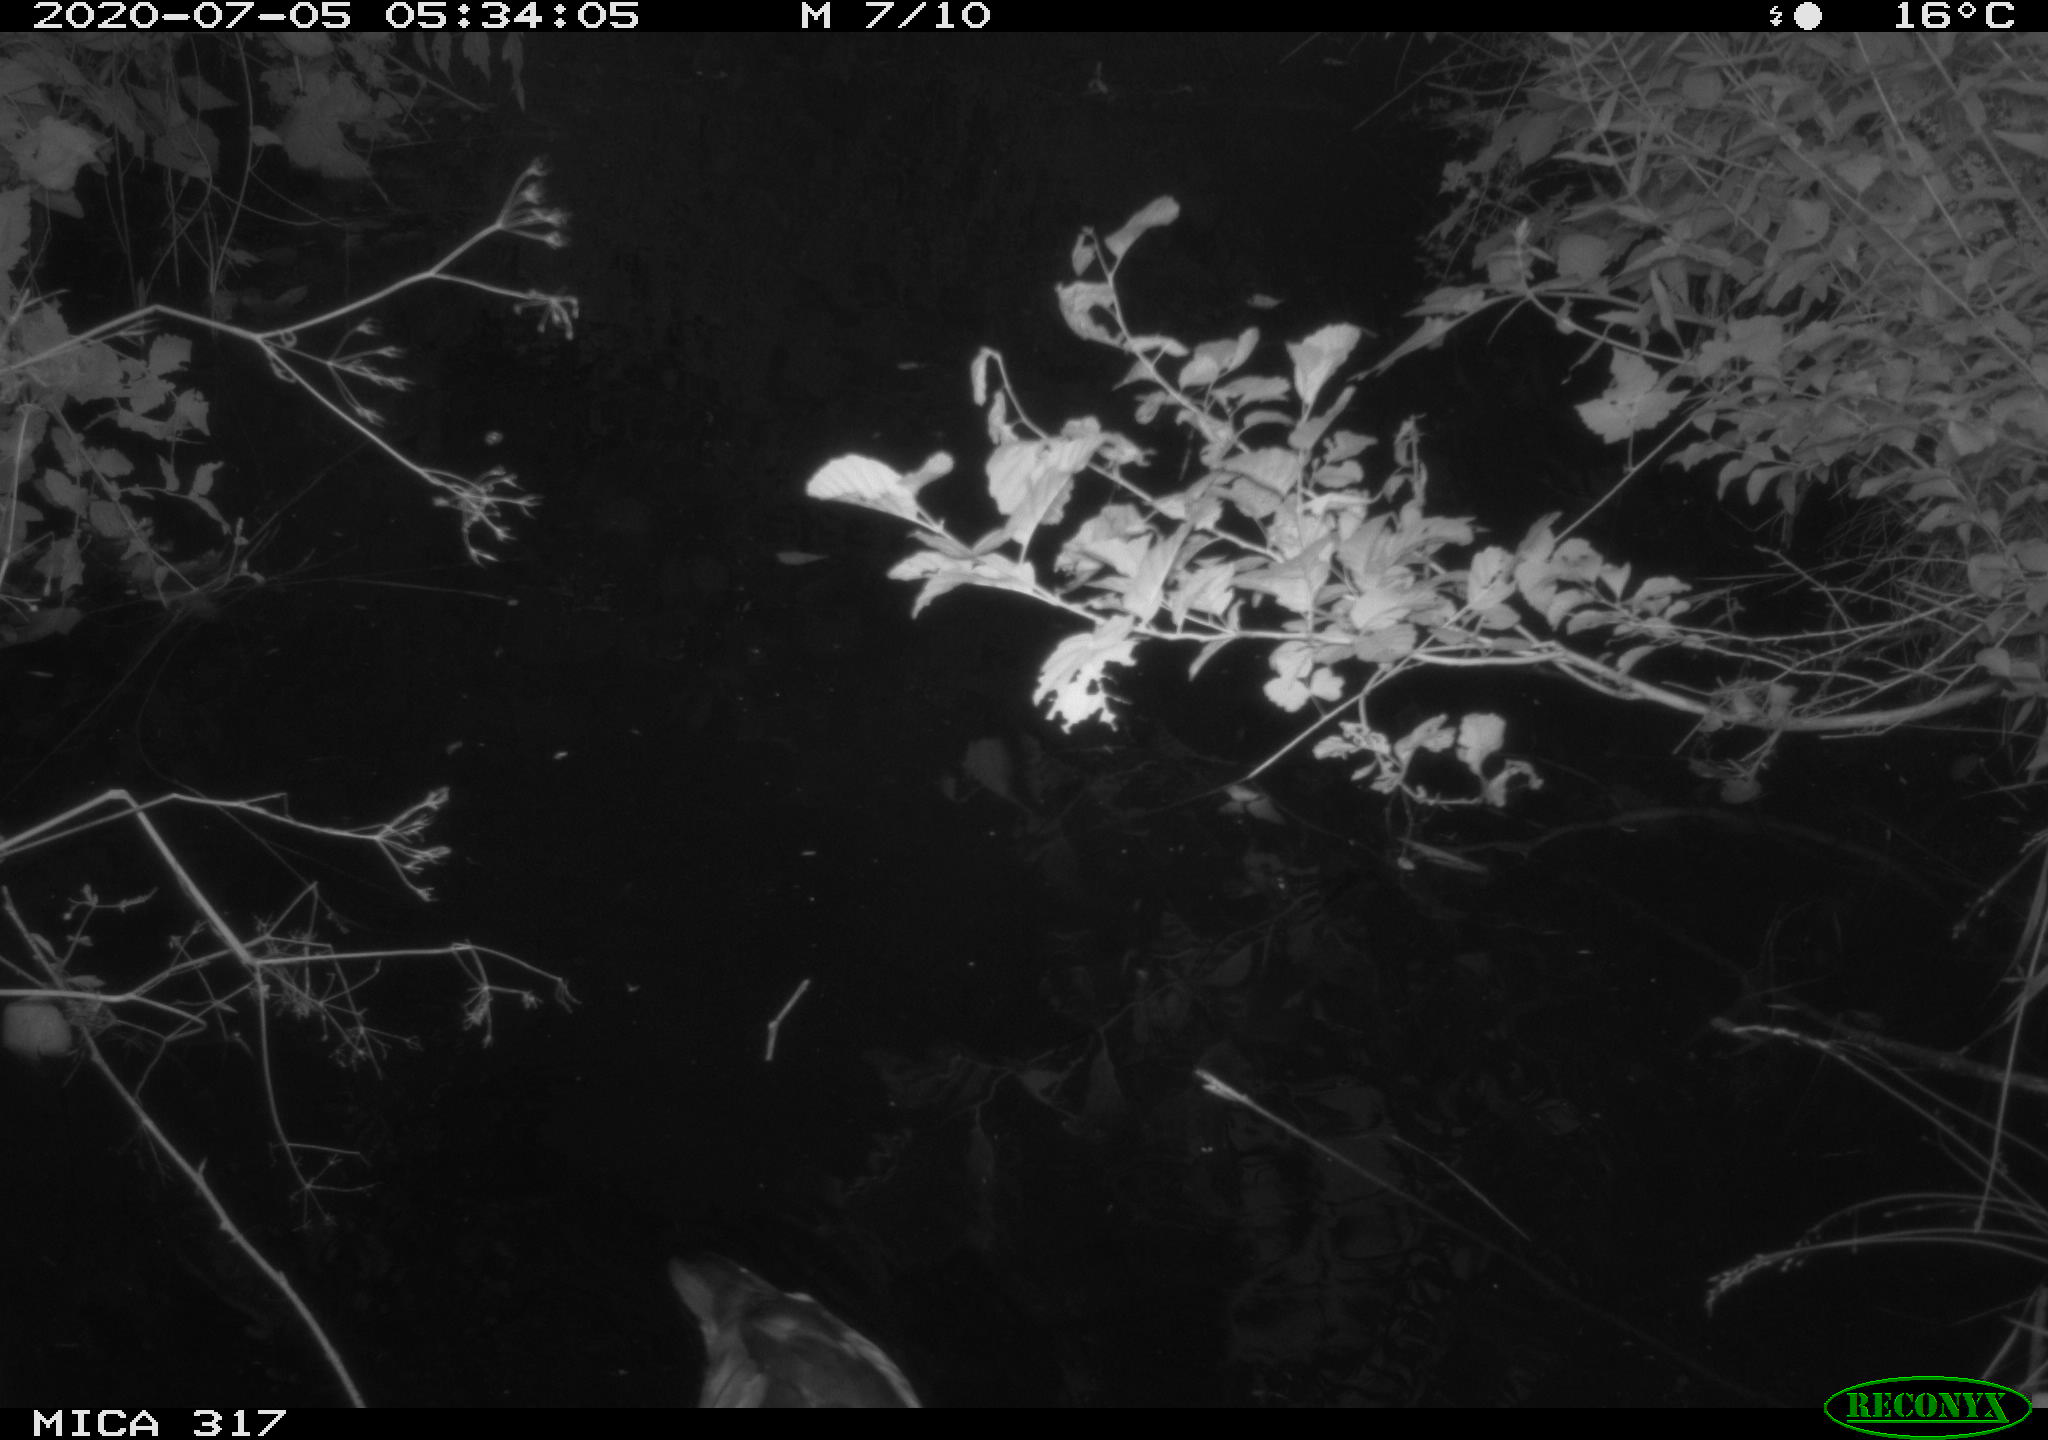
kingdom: Animalia
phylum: Chordata
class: Aves
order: Anseriformes
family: Anatidae
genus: Aix
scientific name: Aix galericulata
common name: Mandarin duck
